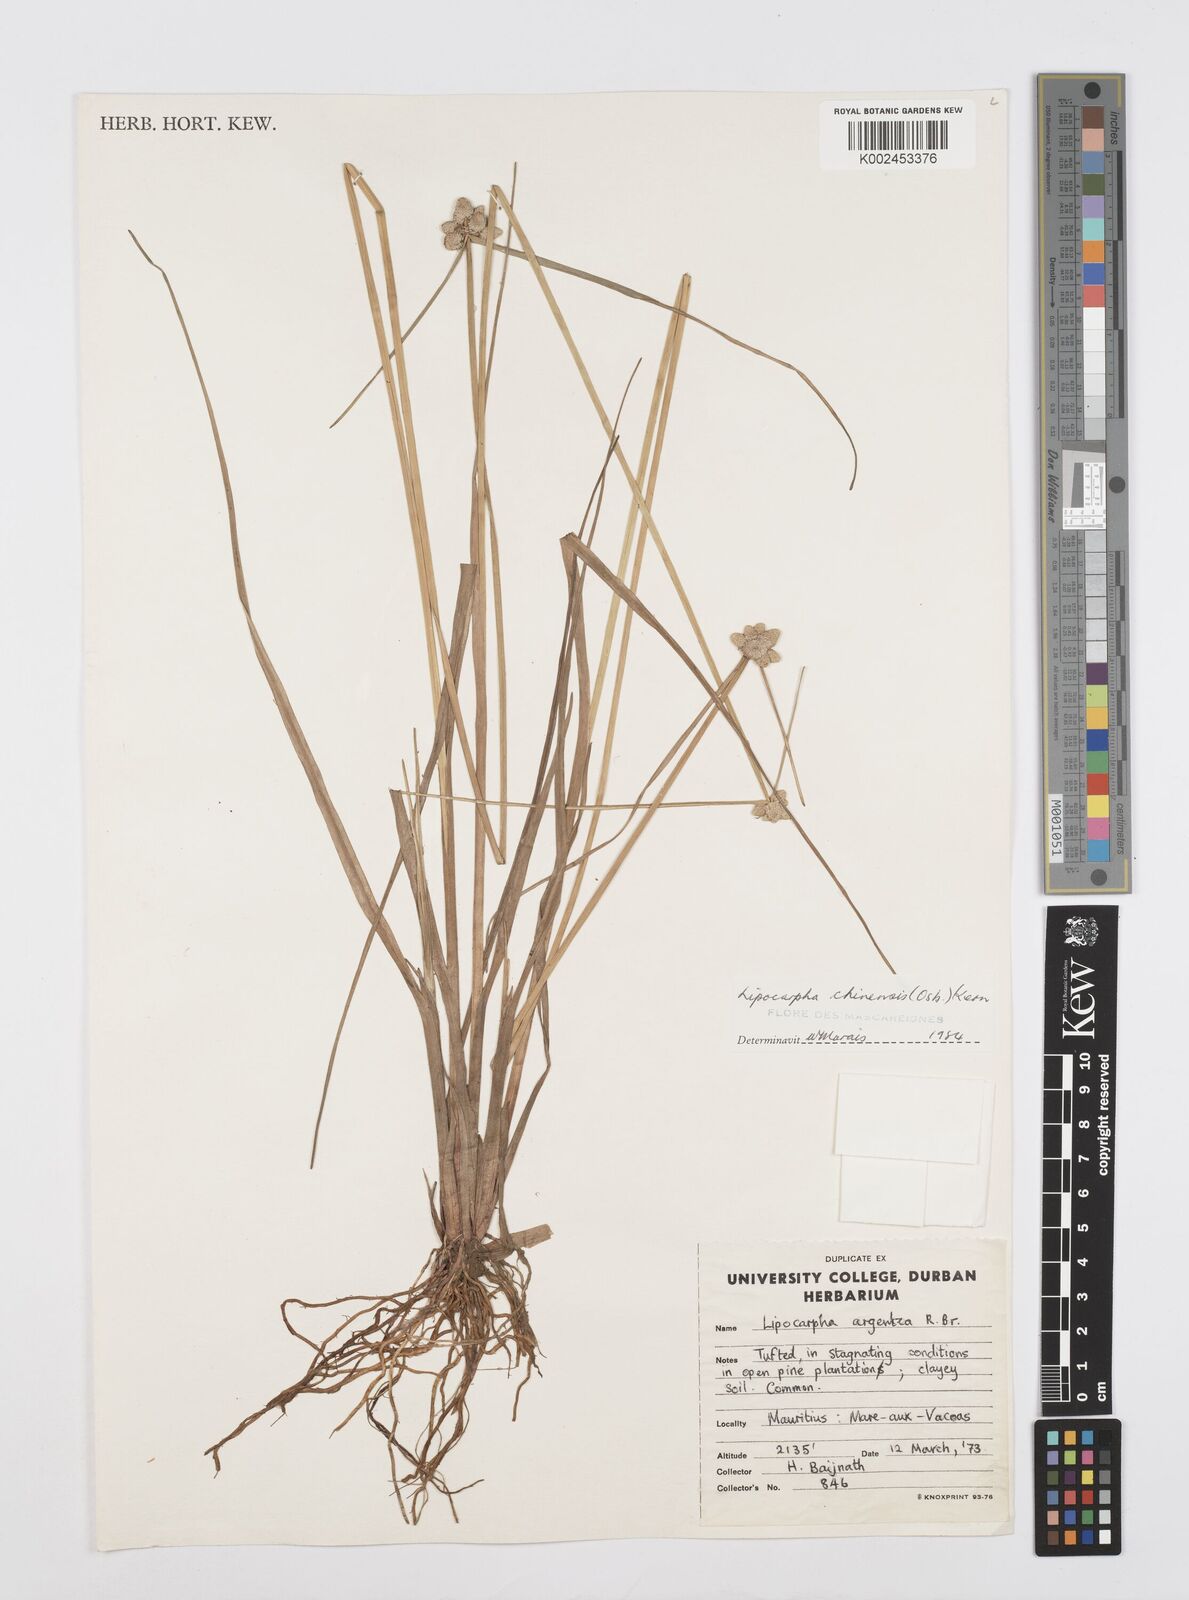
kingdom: Plantae
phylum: Tracheophyta
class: Liliopsida
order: Poales
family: Cyperaceae
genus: Cyperus
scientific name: Cyperus
